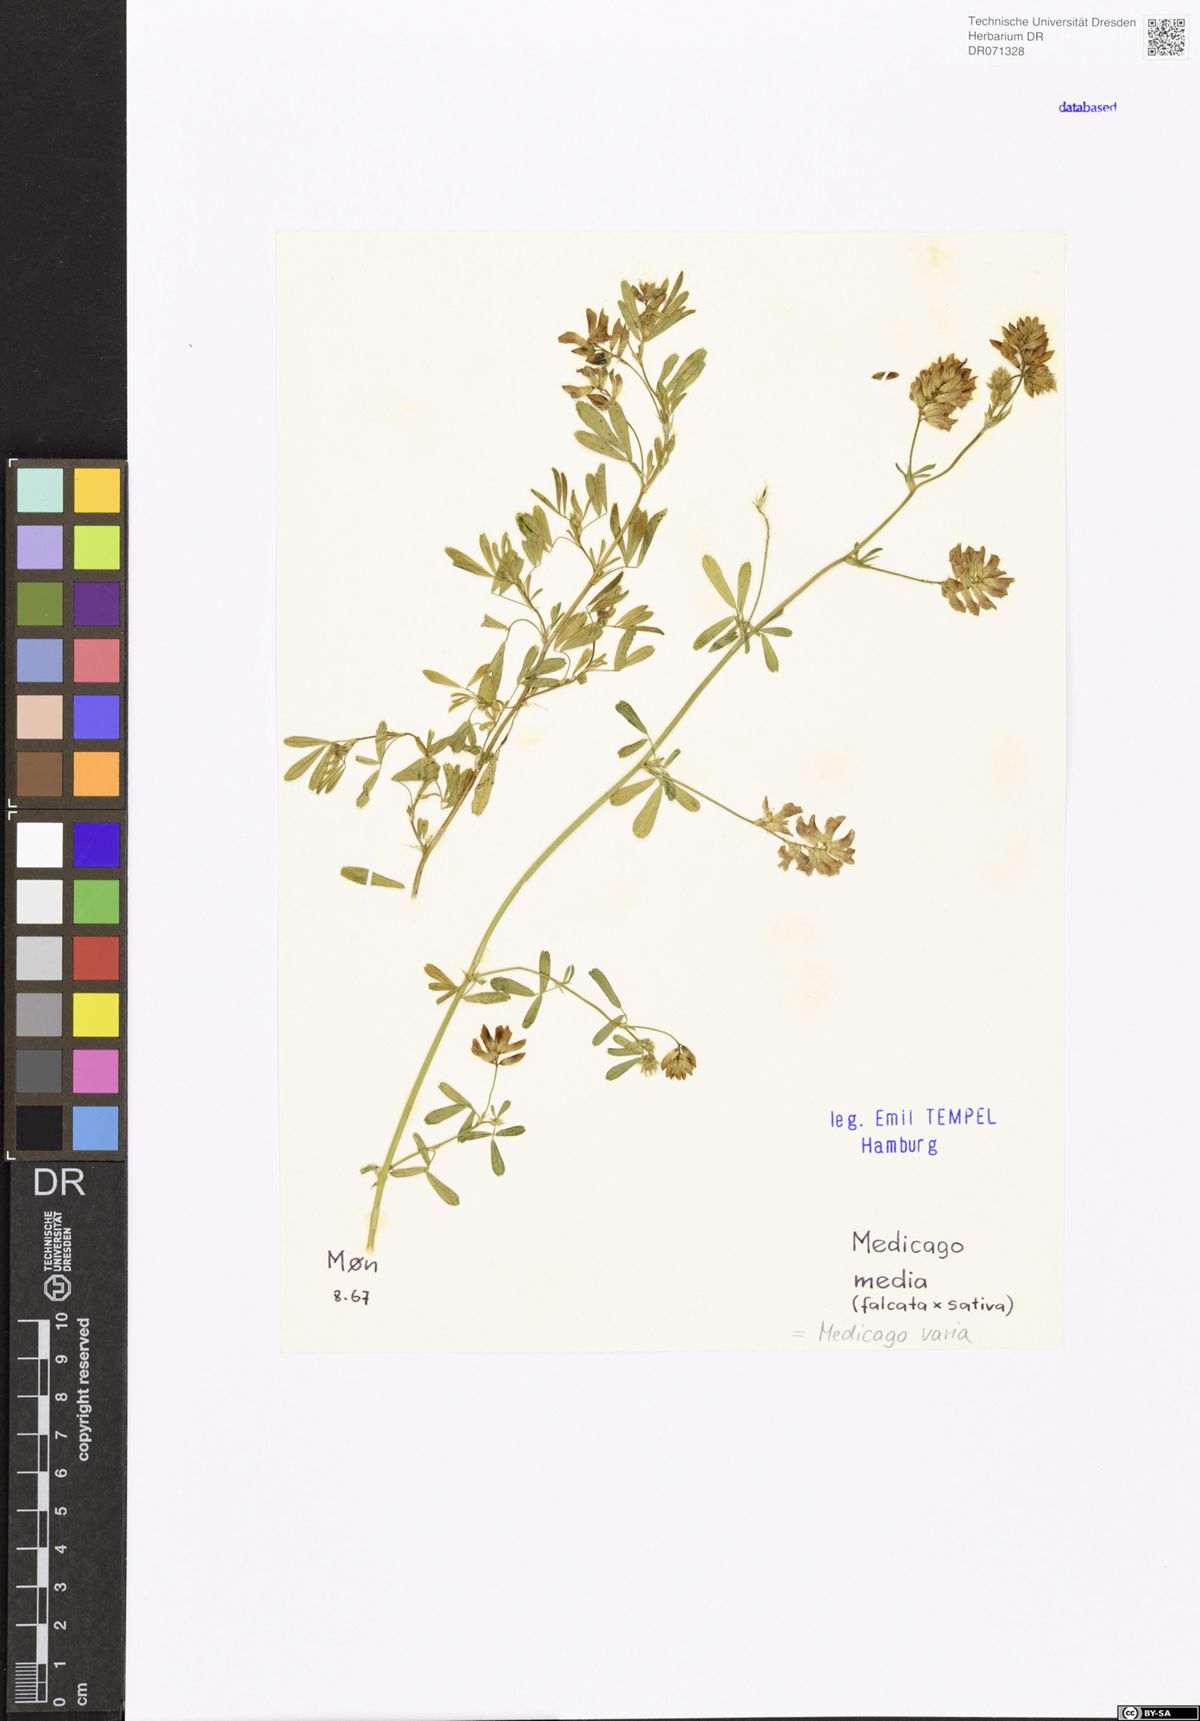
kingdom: Plantae
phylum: Tracheophyta
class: Magnoliopsida
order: Fabales
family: Fabaceae
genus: Medicago
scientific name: Medicago varia
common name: Sand lucerne
